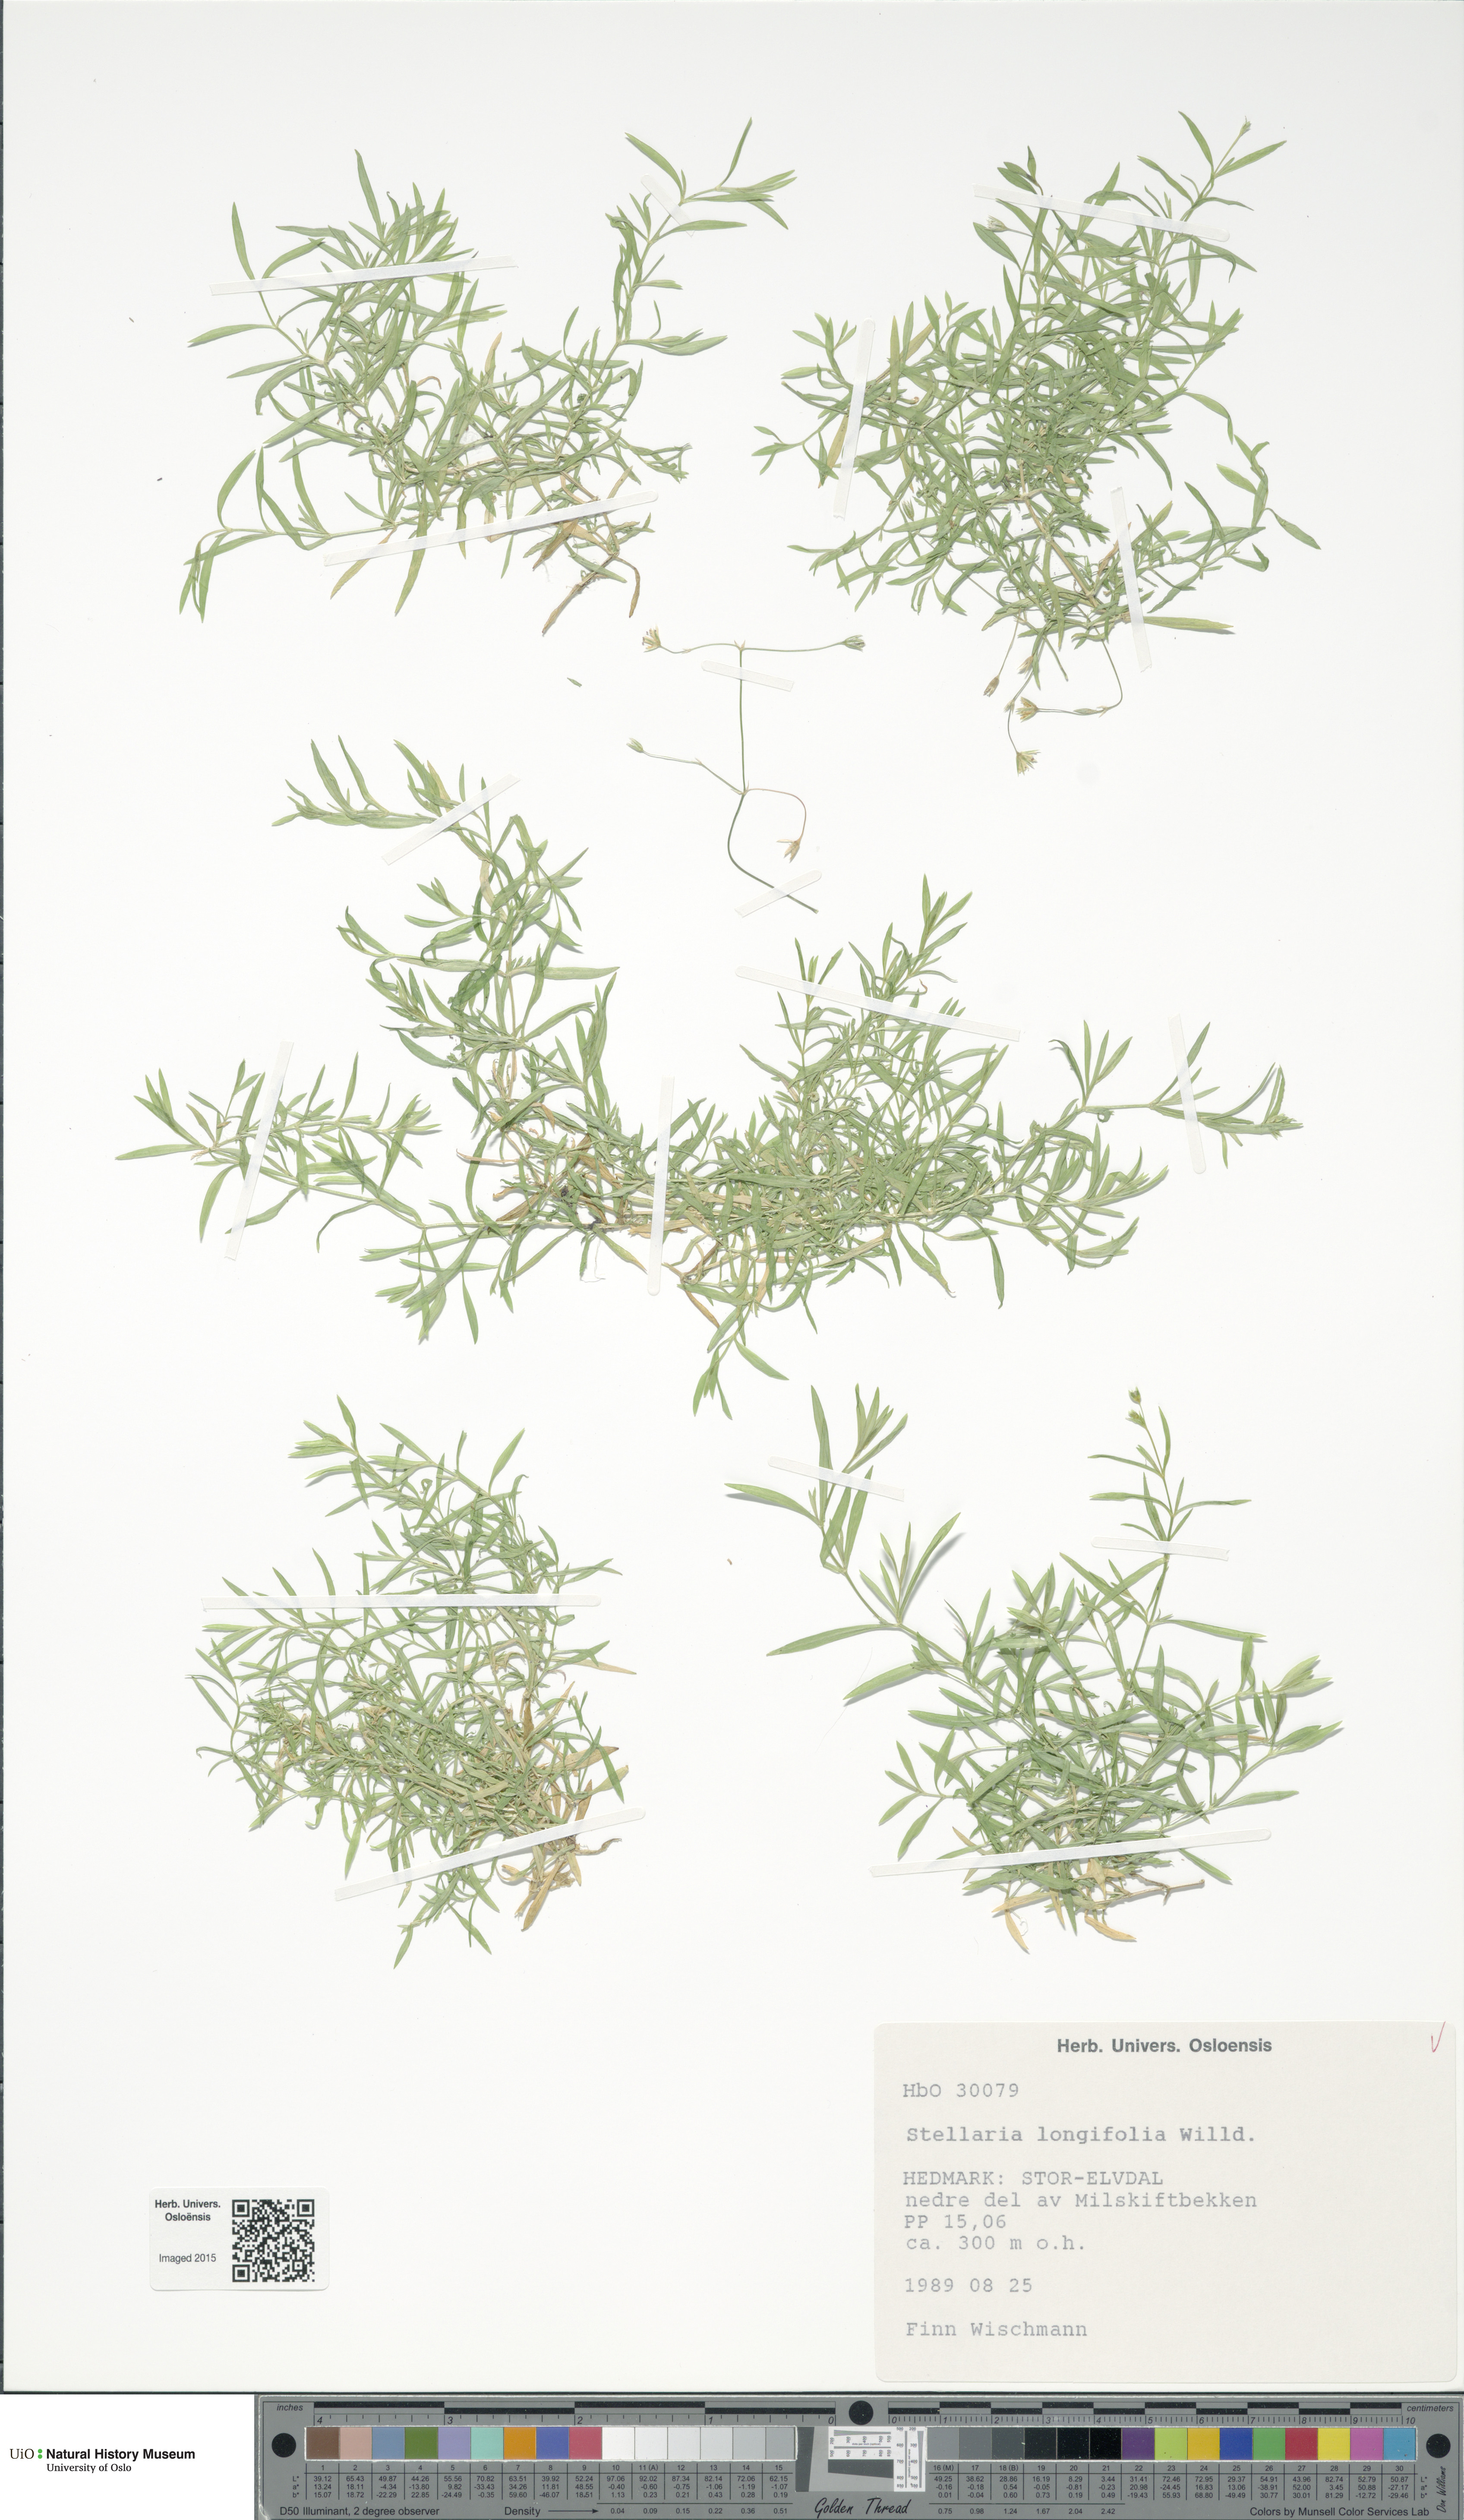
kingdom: Plantae
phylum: Tracheophyta
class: Magnoliopsida
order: Caryophyllales
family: Caryophyllaceae
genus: Stellaria
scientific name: Stellaria longifolia
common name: Long-leaved chickweed
